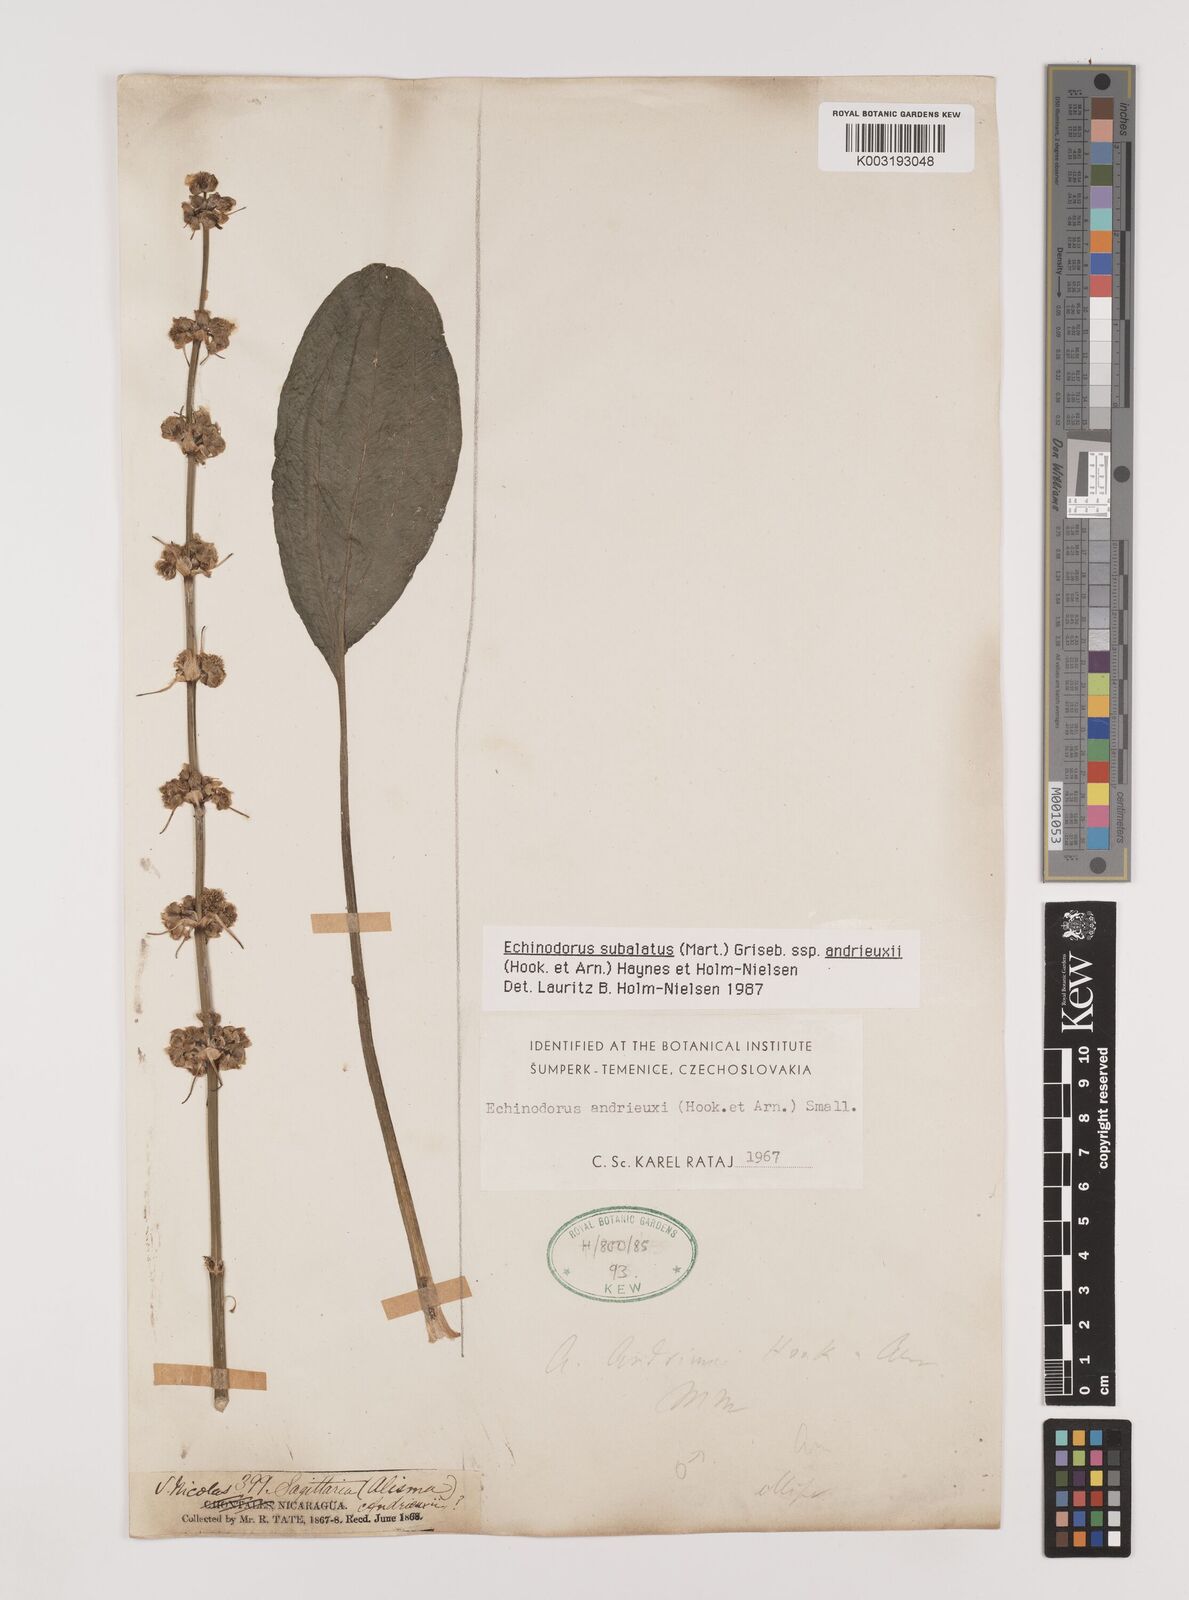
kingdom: Plantae
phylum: Tracheophyta
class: Liliopsida
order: Alismatales
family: Alismataceae
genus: Aquarius
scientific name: Aquarius subulatus
